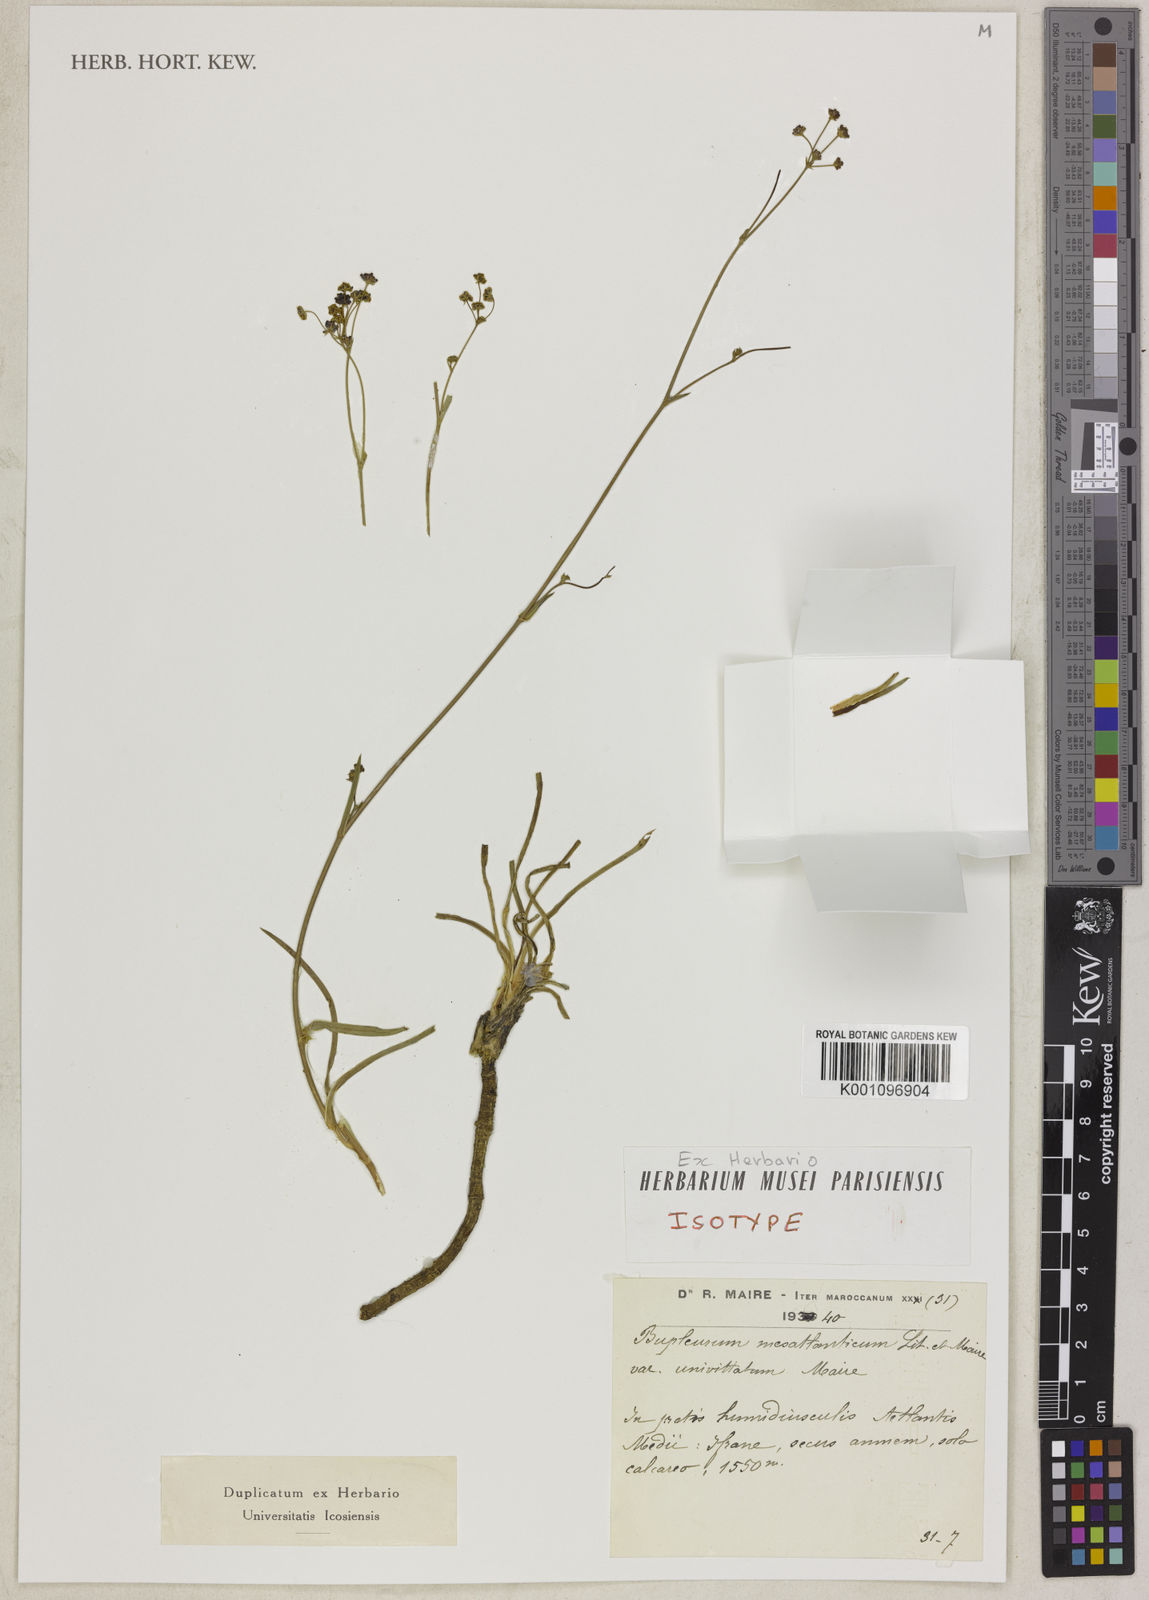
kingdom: Plantae
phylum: Tracheophyta
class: Magnoliopsida
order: Apiales
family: Apiaceae
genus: Bupleurum
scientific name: Bupleurum mesatlanticum
